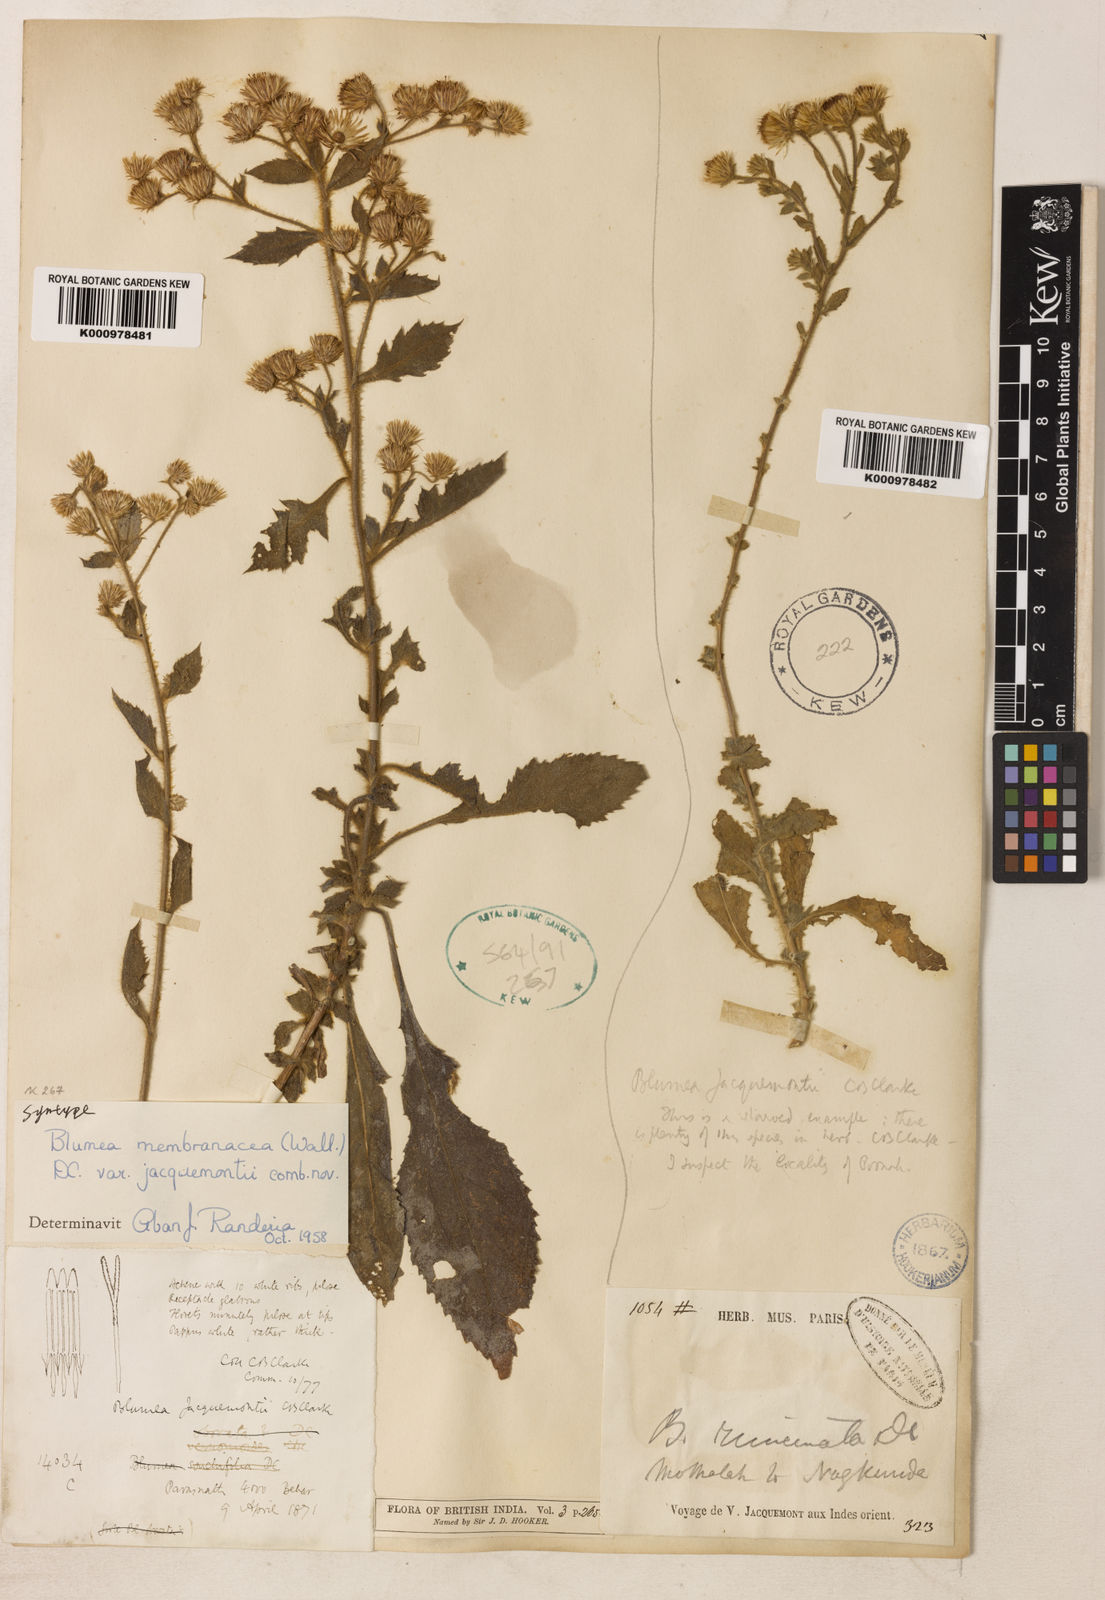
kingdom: Plantae
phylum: Tracheophyta
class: Magnoliopsida
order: Asterales
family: Asteraceae
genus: Pluchea
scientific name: Pluchea paniculata
